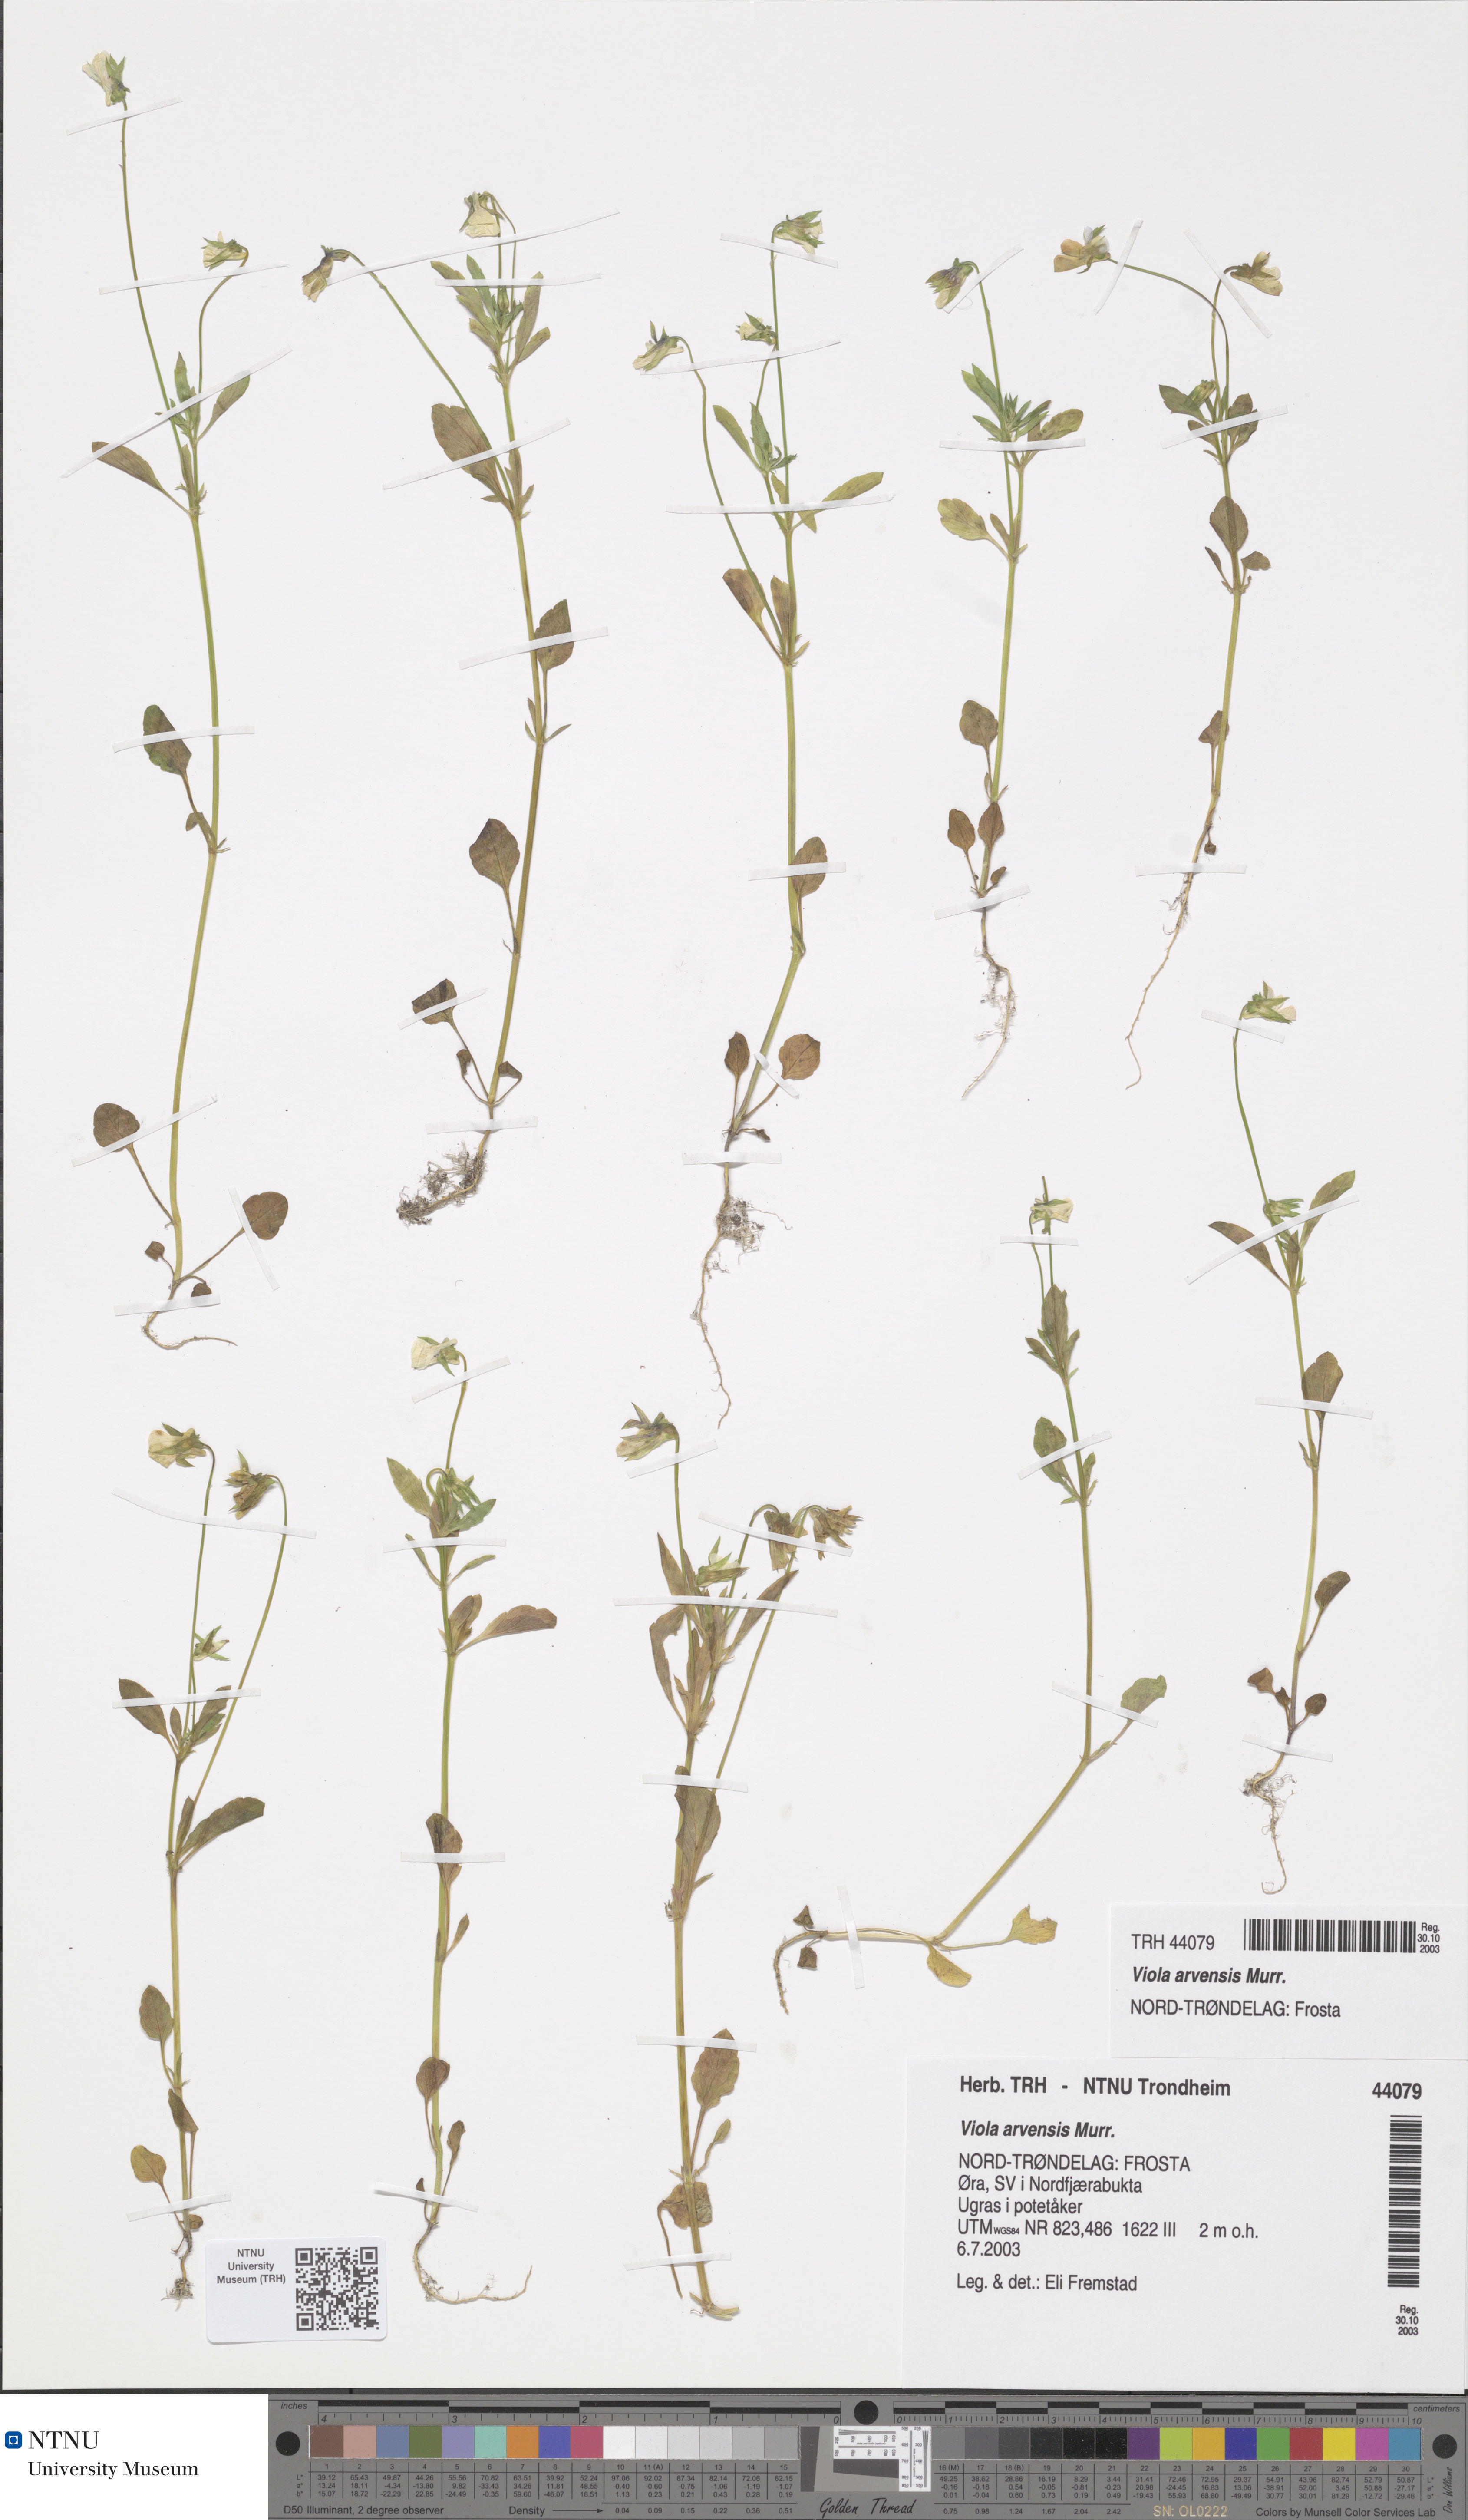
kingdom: Plantae
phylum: Tracheophyta
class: Magnoliopsida
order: Malpighiales
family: Violaceae
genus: Viola
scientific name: Viola arvensis
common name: Field pansy
